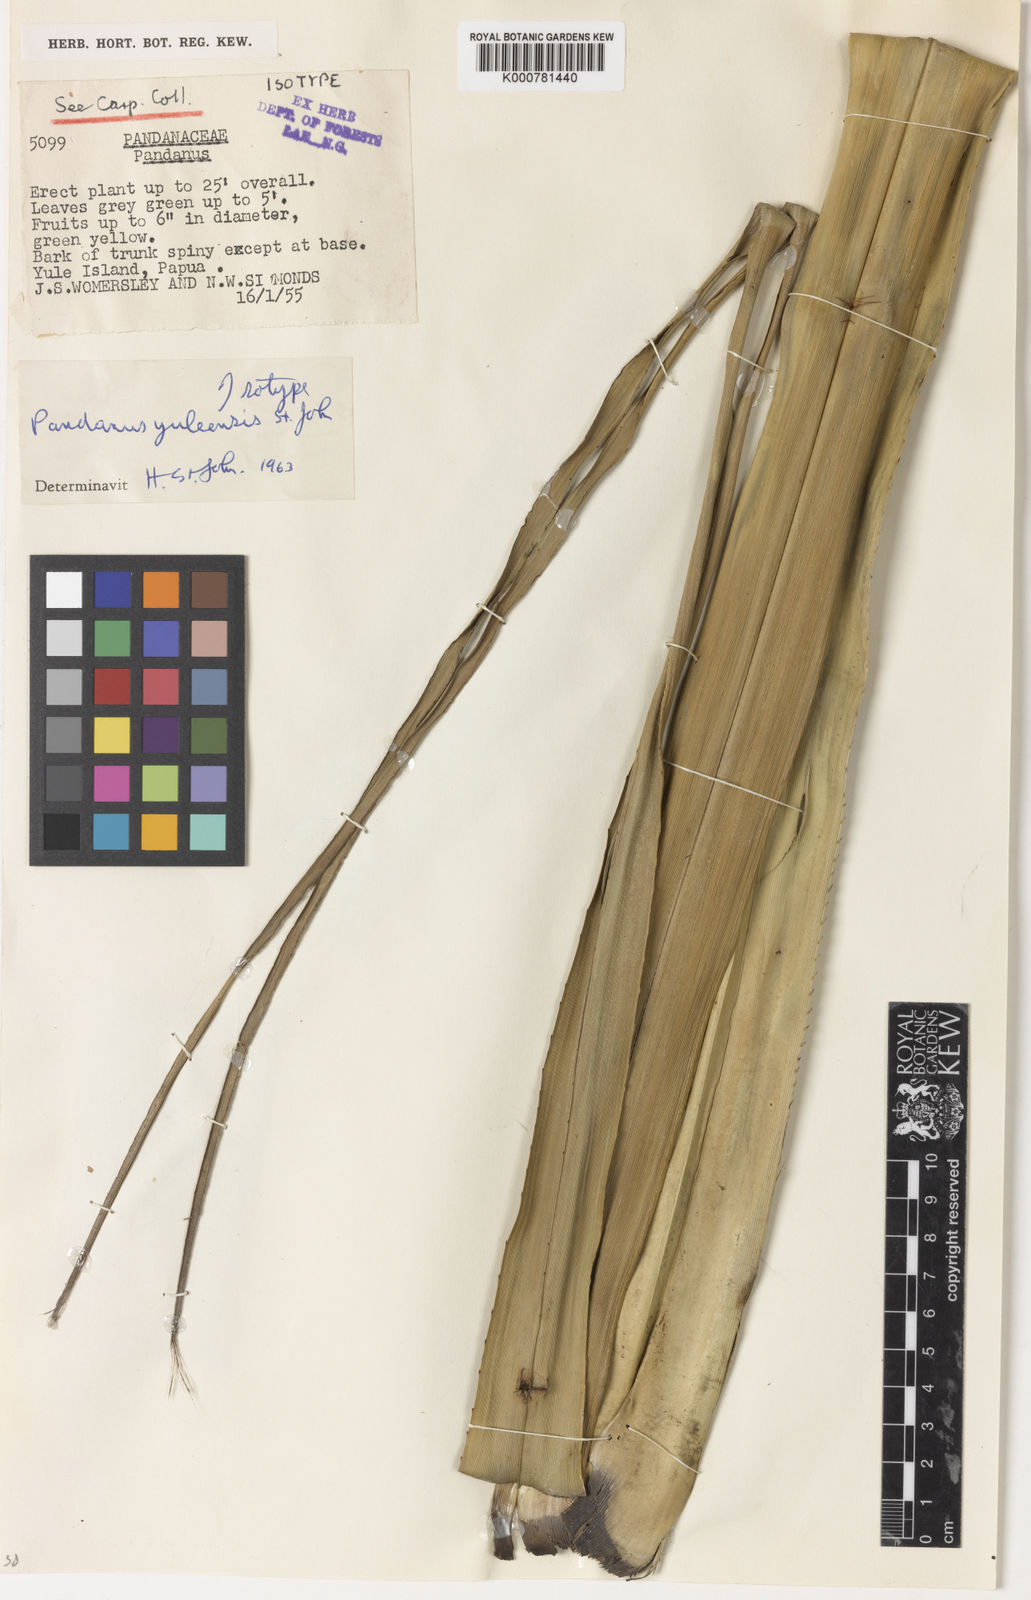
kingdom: Plantae
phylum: Tracheophyta
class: Liliopsida
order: Pandanales
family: Pandanaceae
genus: Pandanus
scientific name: Pandanus yuleensis
